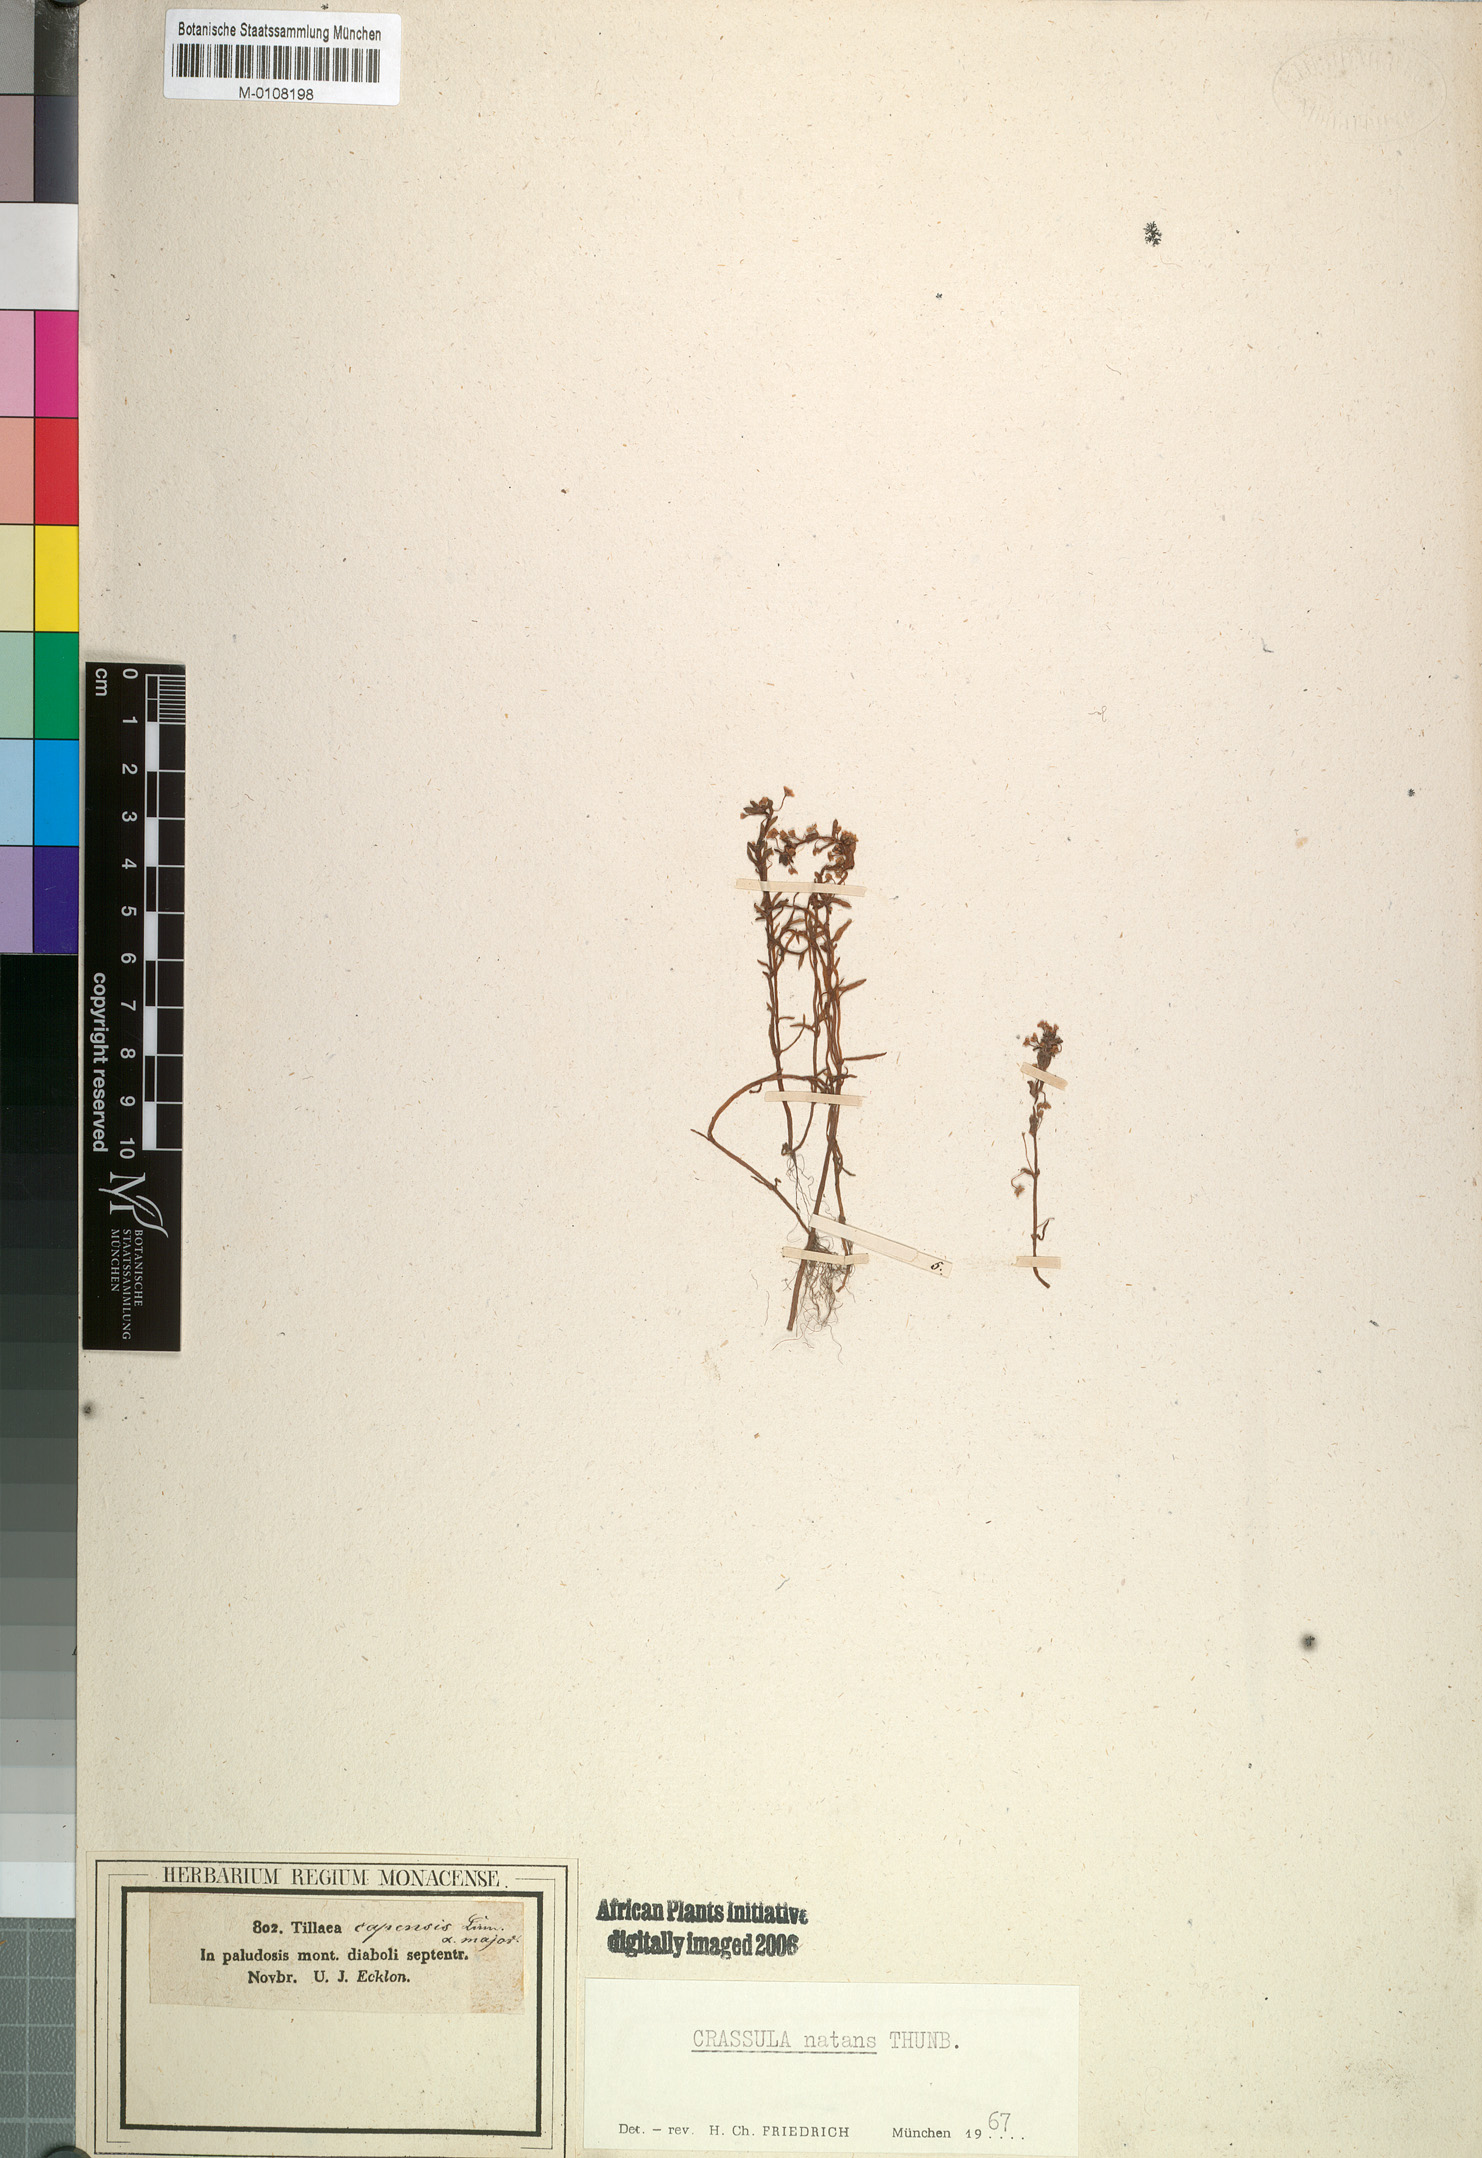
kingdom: Plantae
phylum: Tracheophyta
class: Magnoliopsida
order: Saxifragales
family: Crassulaceae
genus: Crassula
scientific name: Crassula natans
